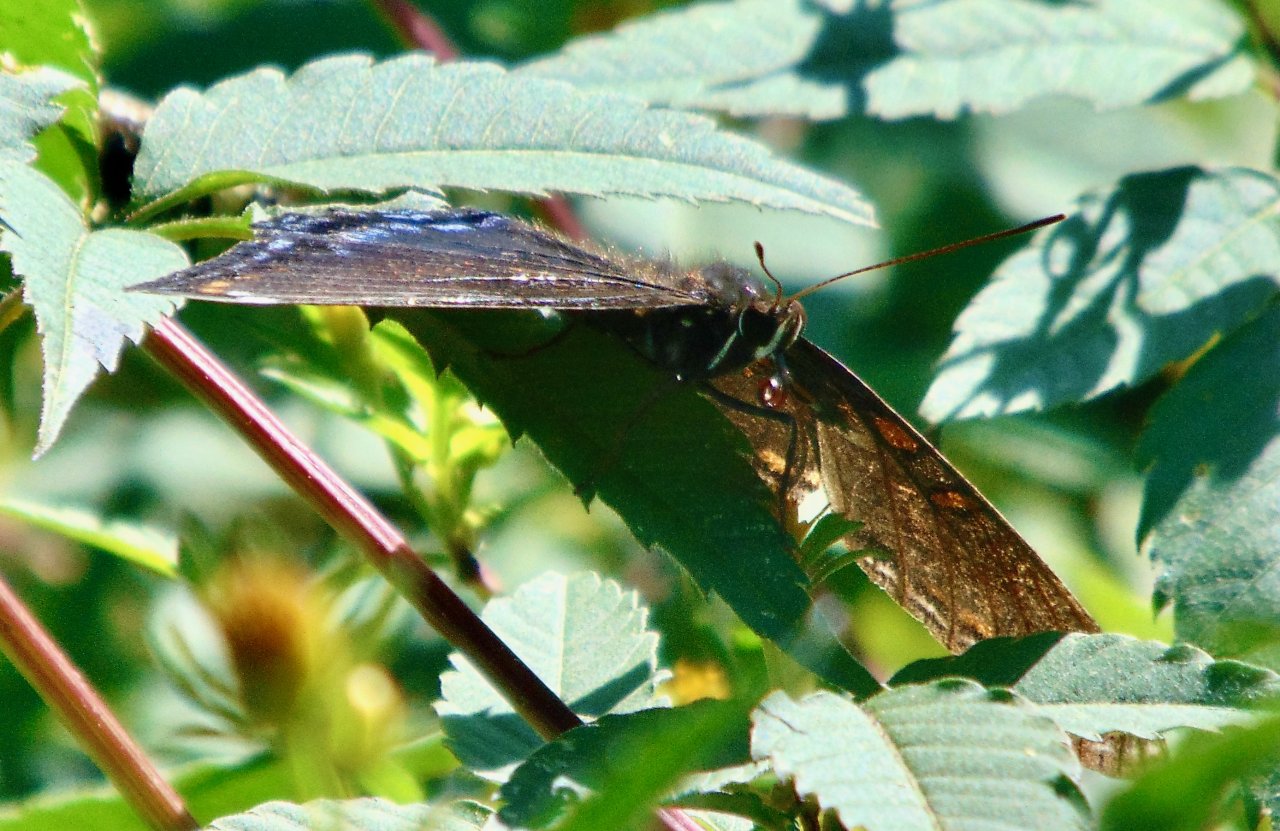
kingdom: Animalia
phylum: Arthropoda
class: Insecta
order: Lepidoptera
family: Nymphalidae
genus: Limenitis
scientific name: Limenitis astyanax
